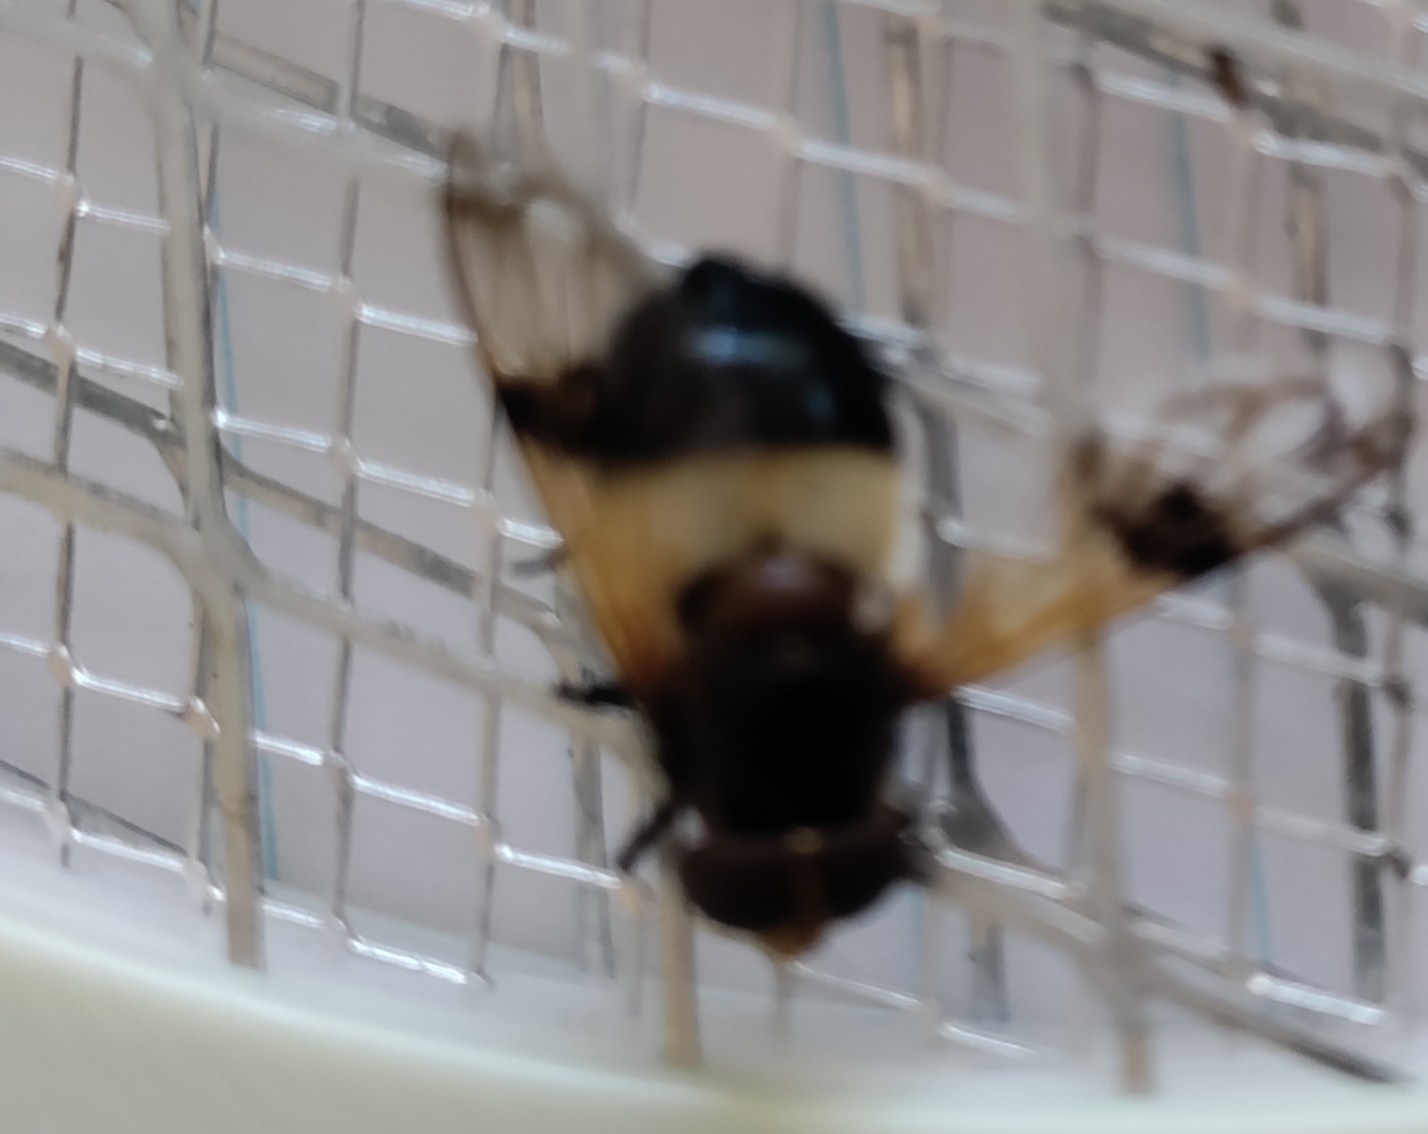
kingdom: Animalia
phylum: Arthropoda
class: Insecta
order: Diptera
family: Syrphidae
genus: Volucella
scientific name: Volucella pellucens
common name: Hvidbåndet humlesvirreflue
